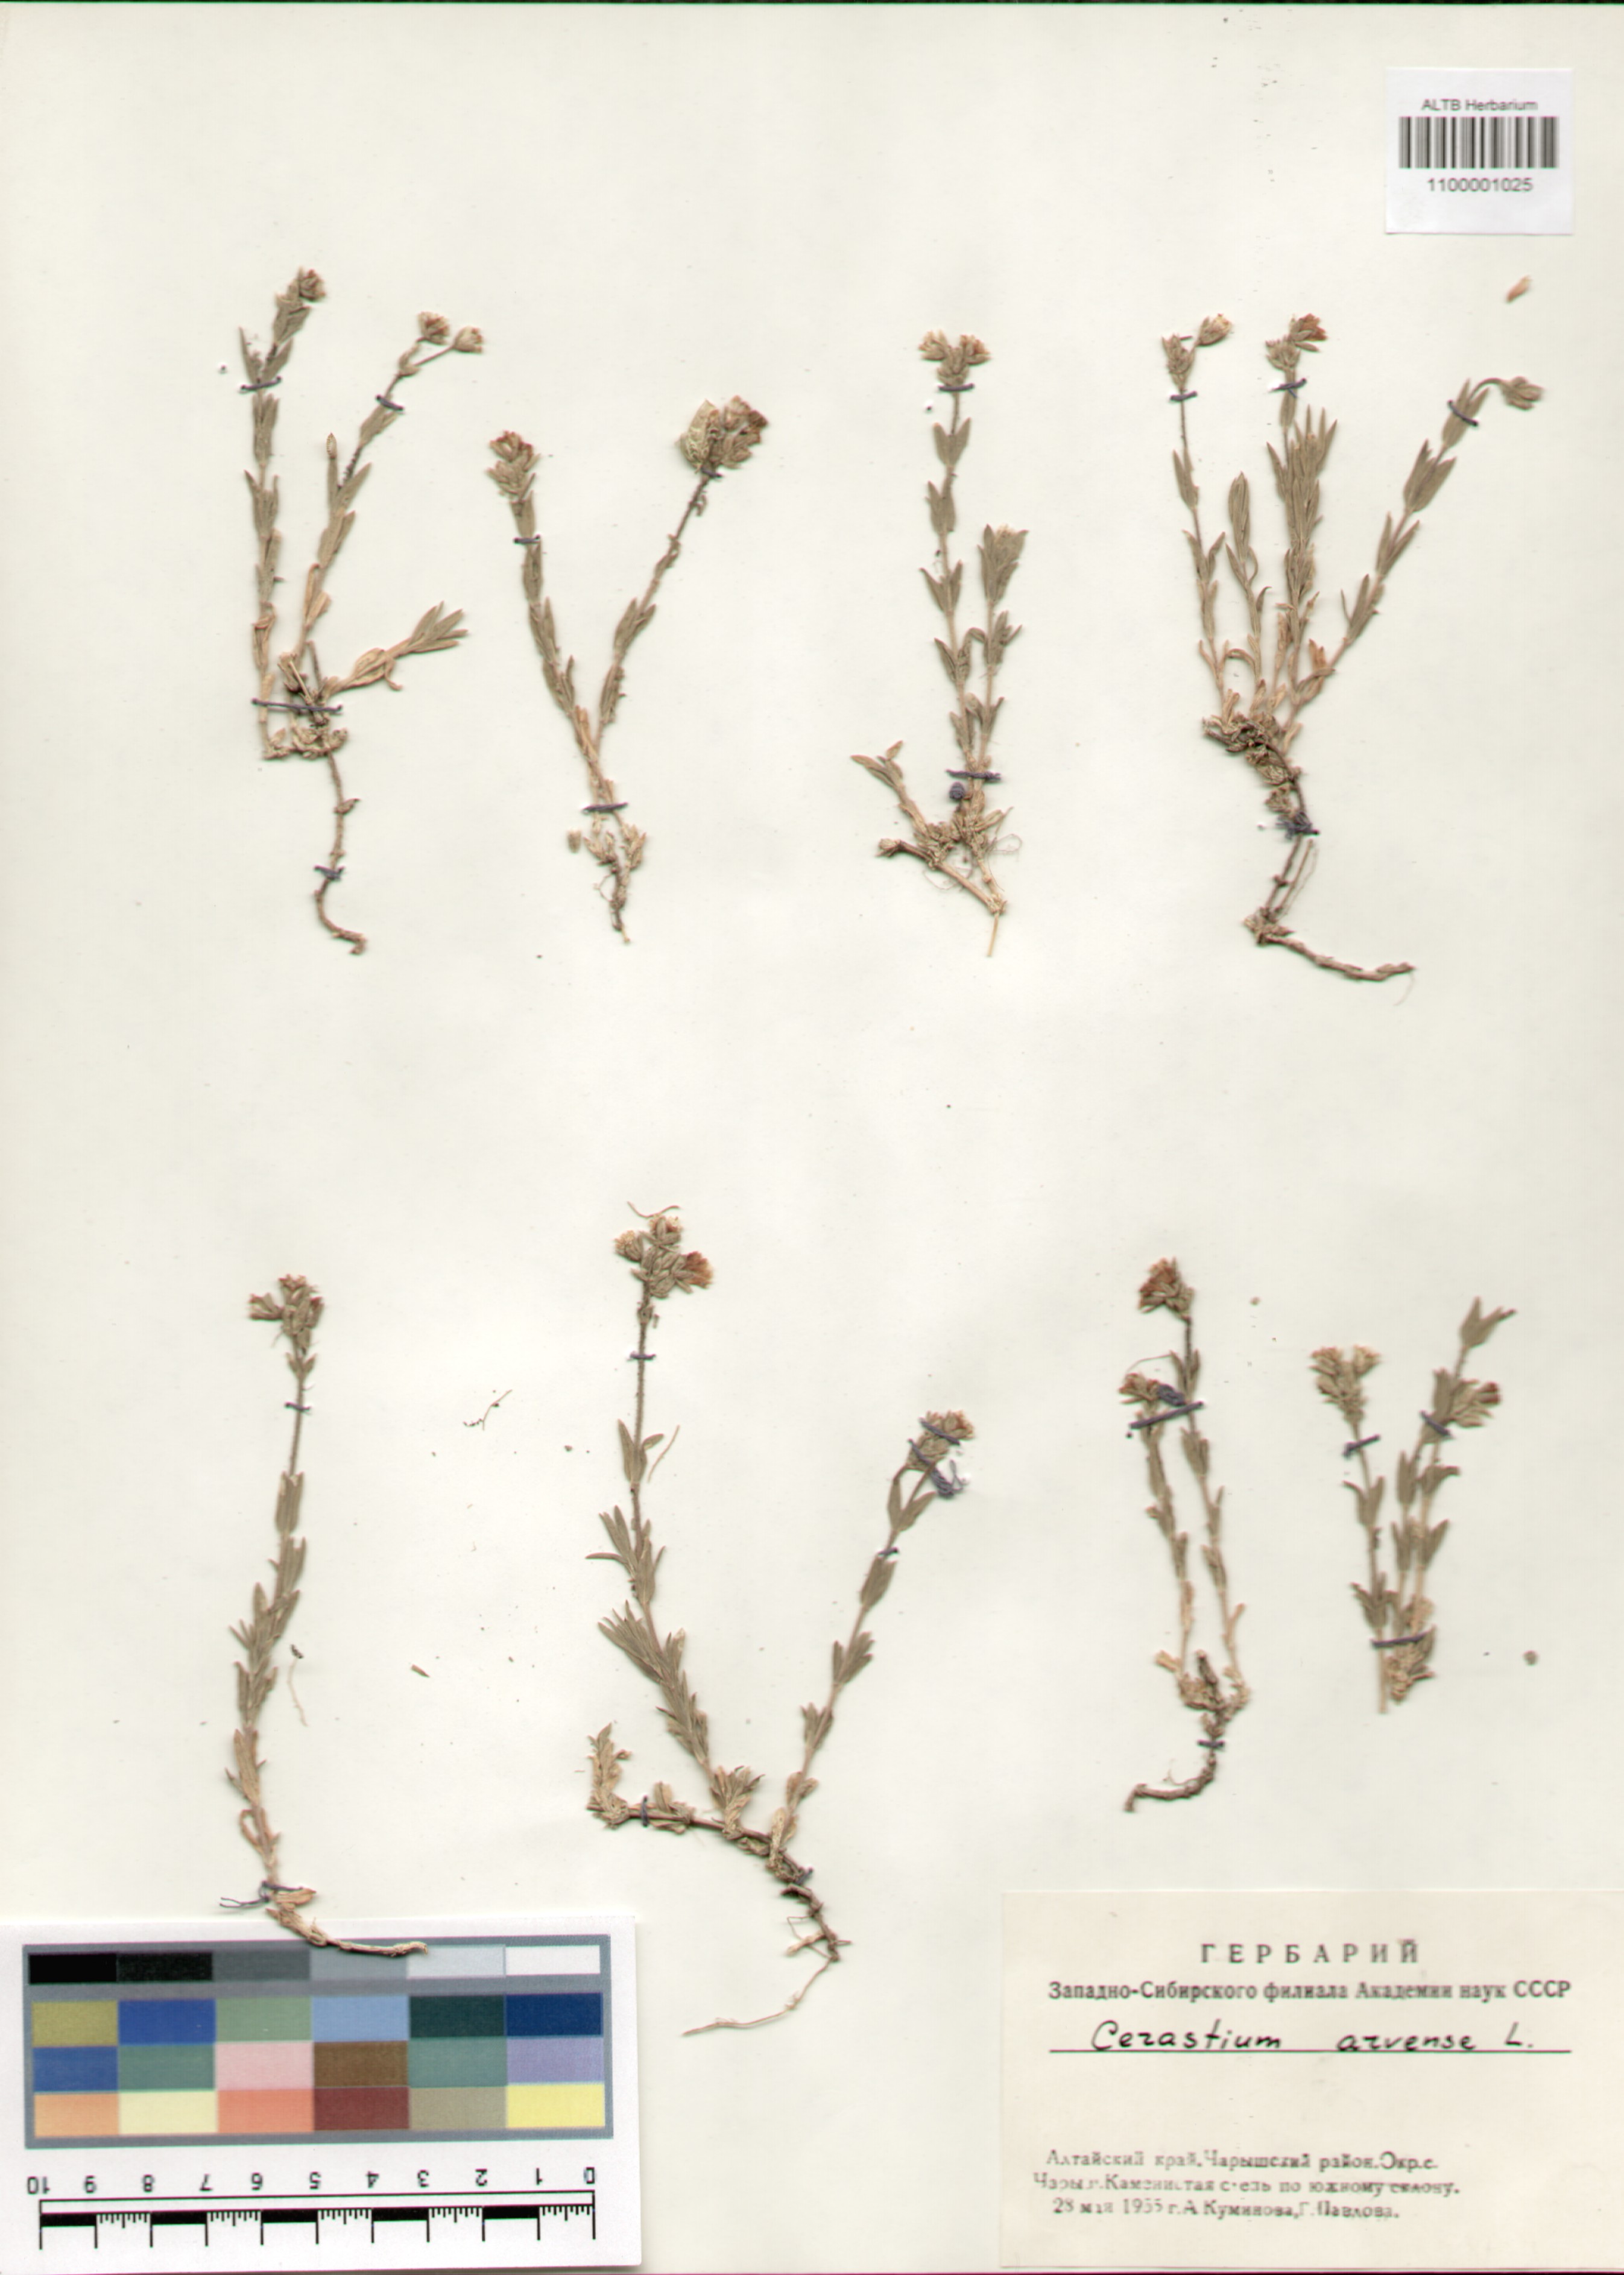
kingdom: Plantae
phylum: Tracheophyta
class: Magnoliopsida
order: Caryophyllales
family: Caryophyllaceae
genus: Cerastium
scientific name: Cerastium arvense
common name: Field mouse-ear
